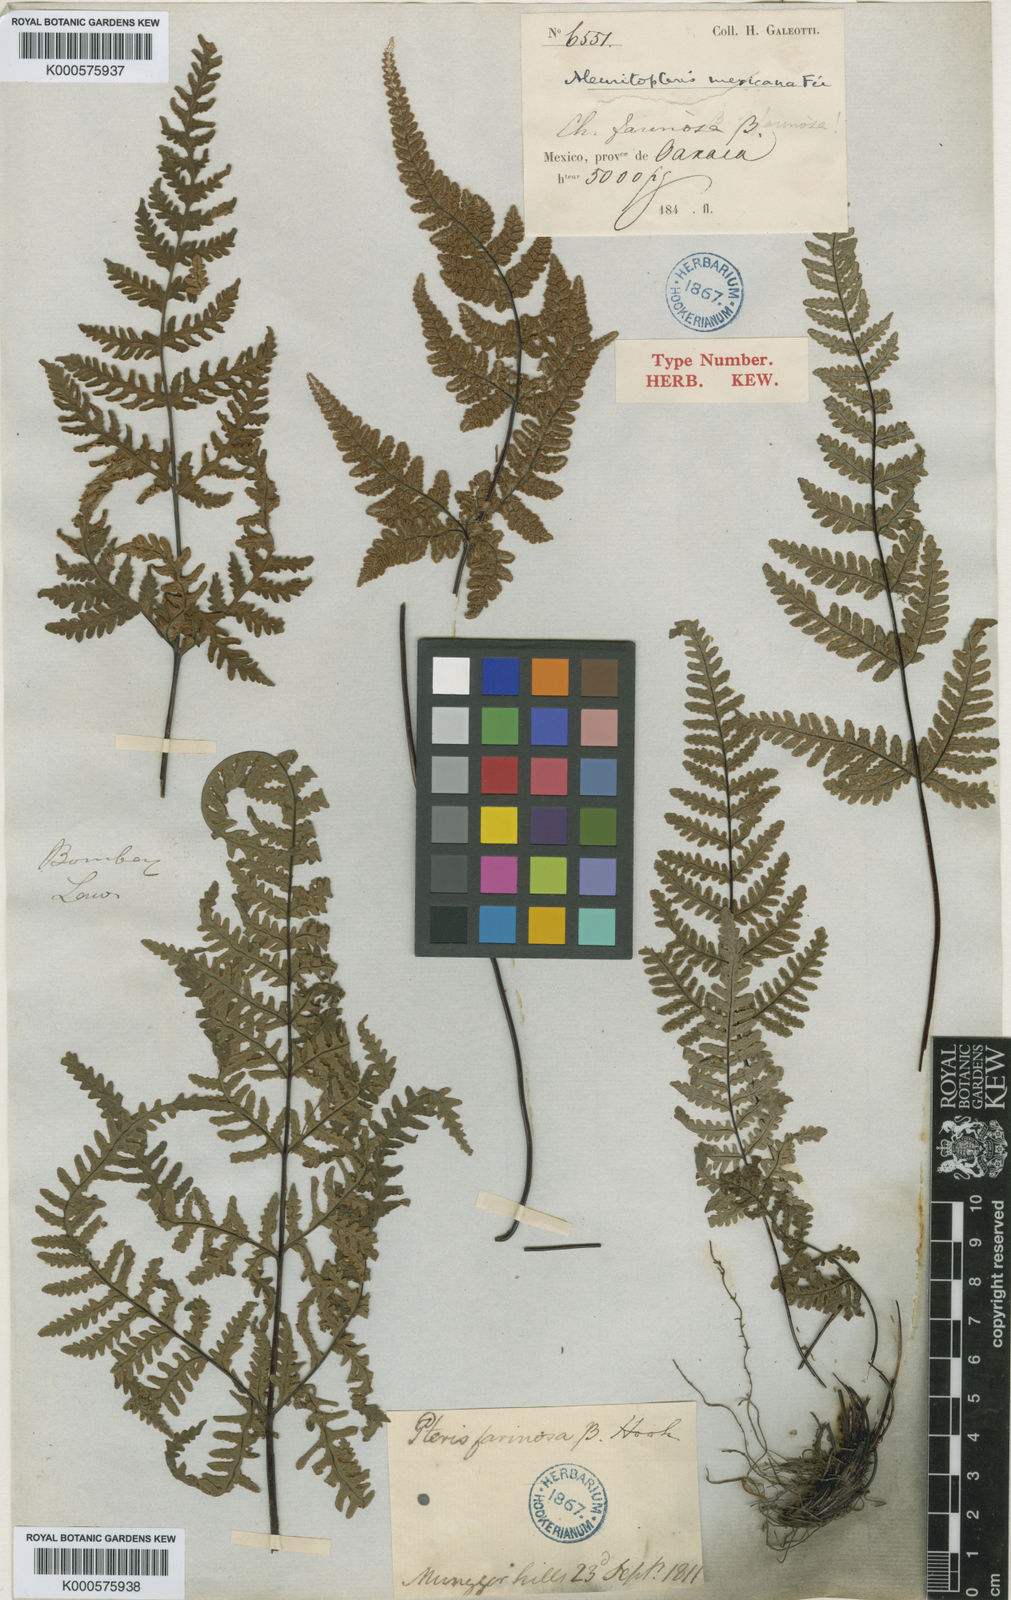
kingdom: Plantae
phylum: Tracheophyta
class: Polypodiopsida
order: Polypodiales
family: Pteridaceae
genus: Aleuritopteris
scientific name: Aleuritopteris mexicana
